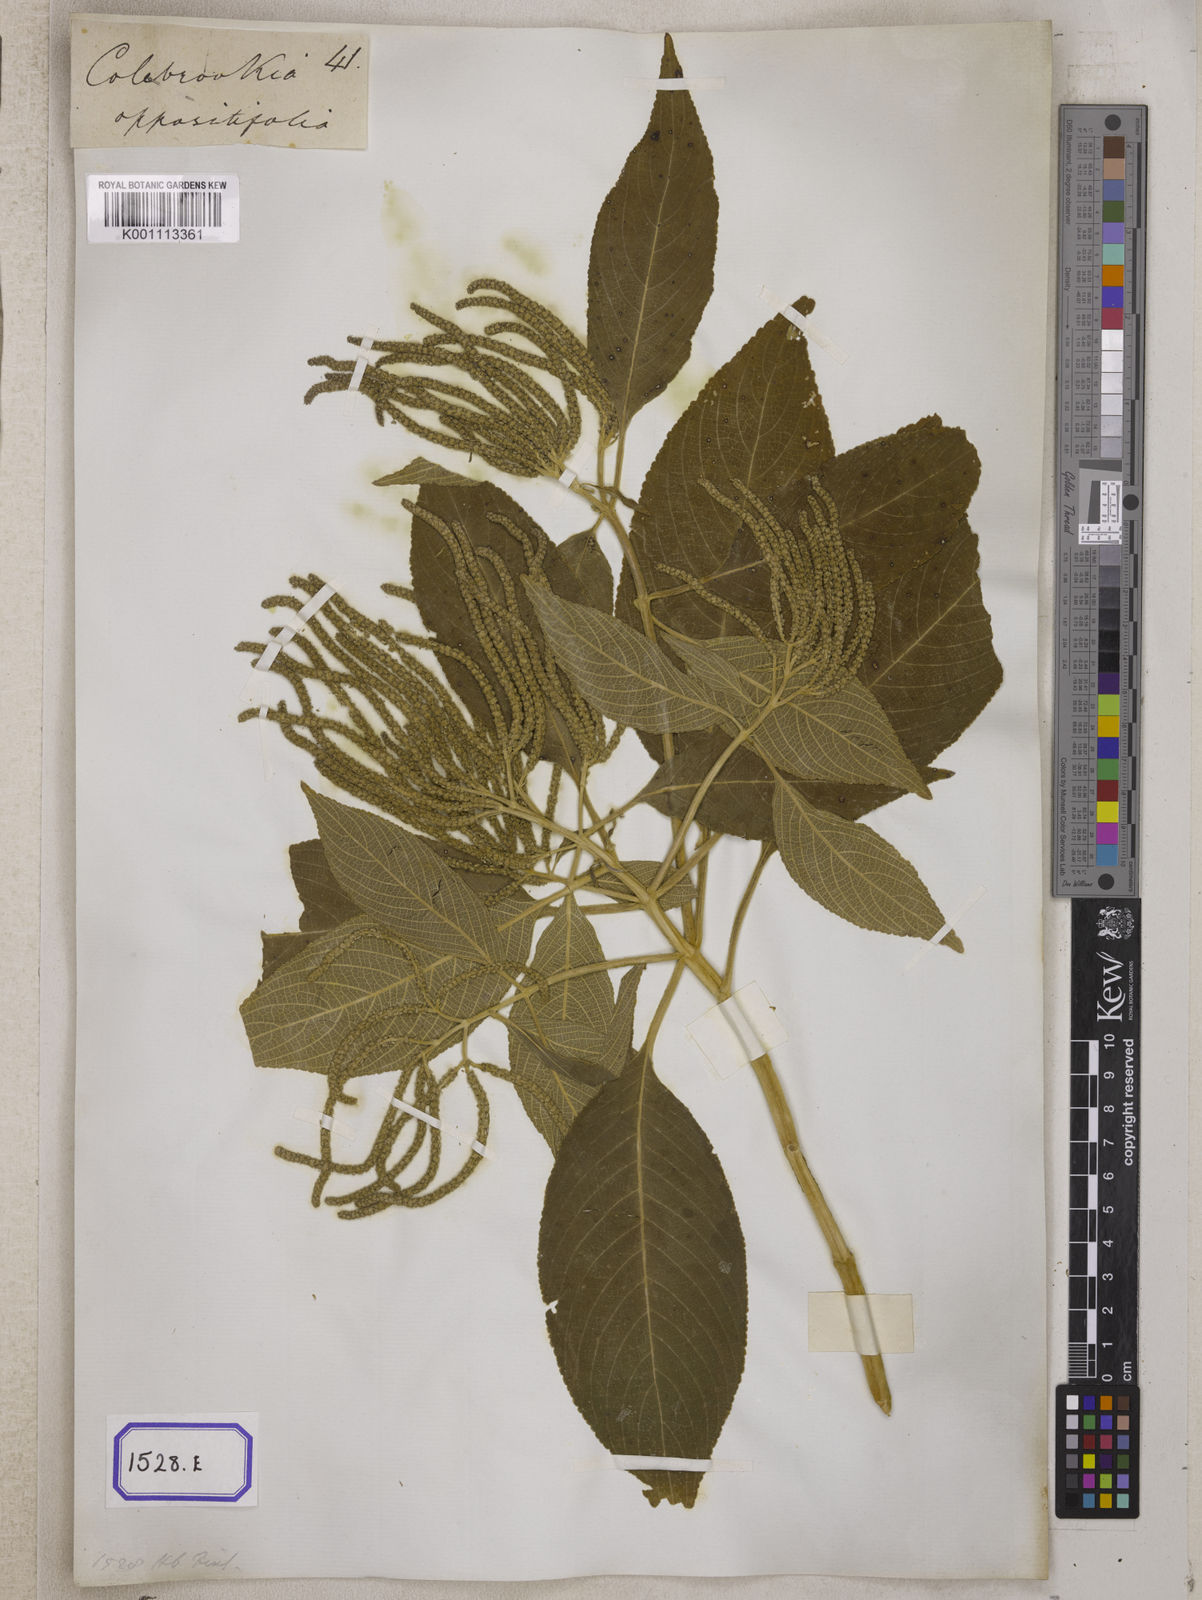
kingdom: Plantae
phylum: Tracheophyta
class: Magnoliopsida
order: Lamiales
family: Lamiaceae
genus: Colebrookea
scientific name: Colebrookea
